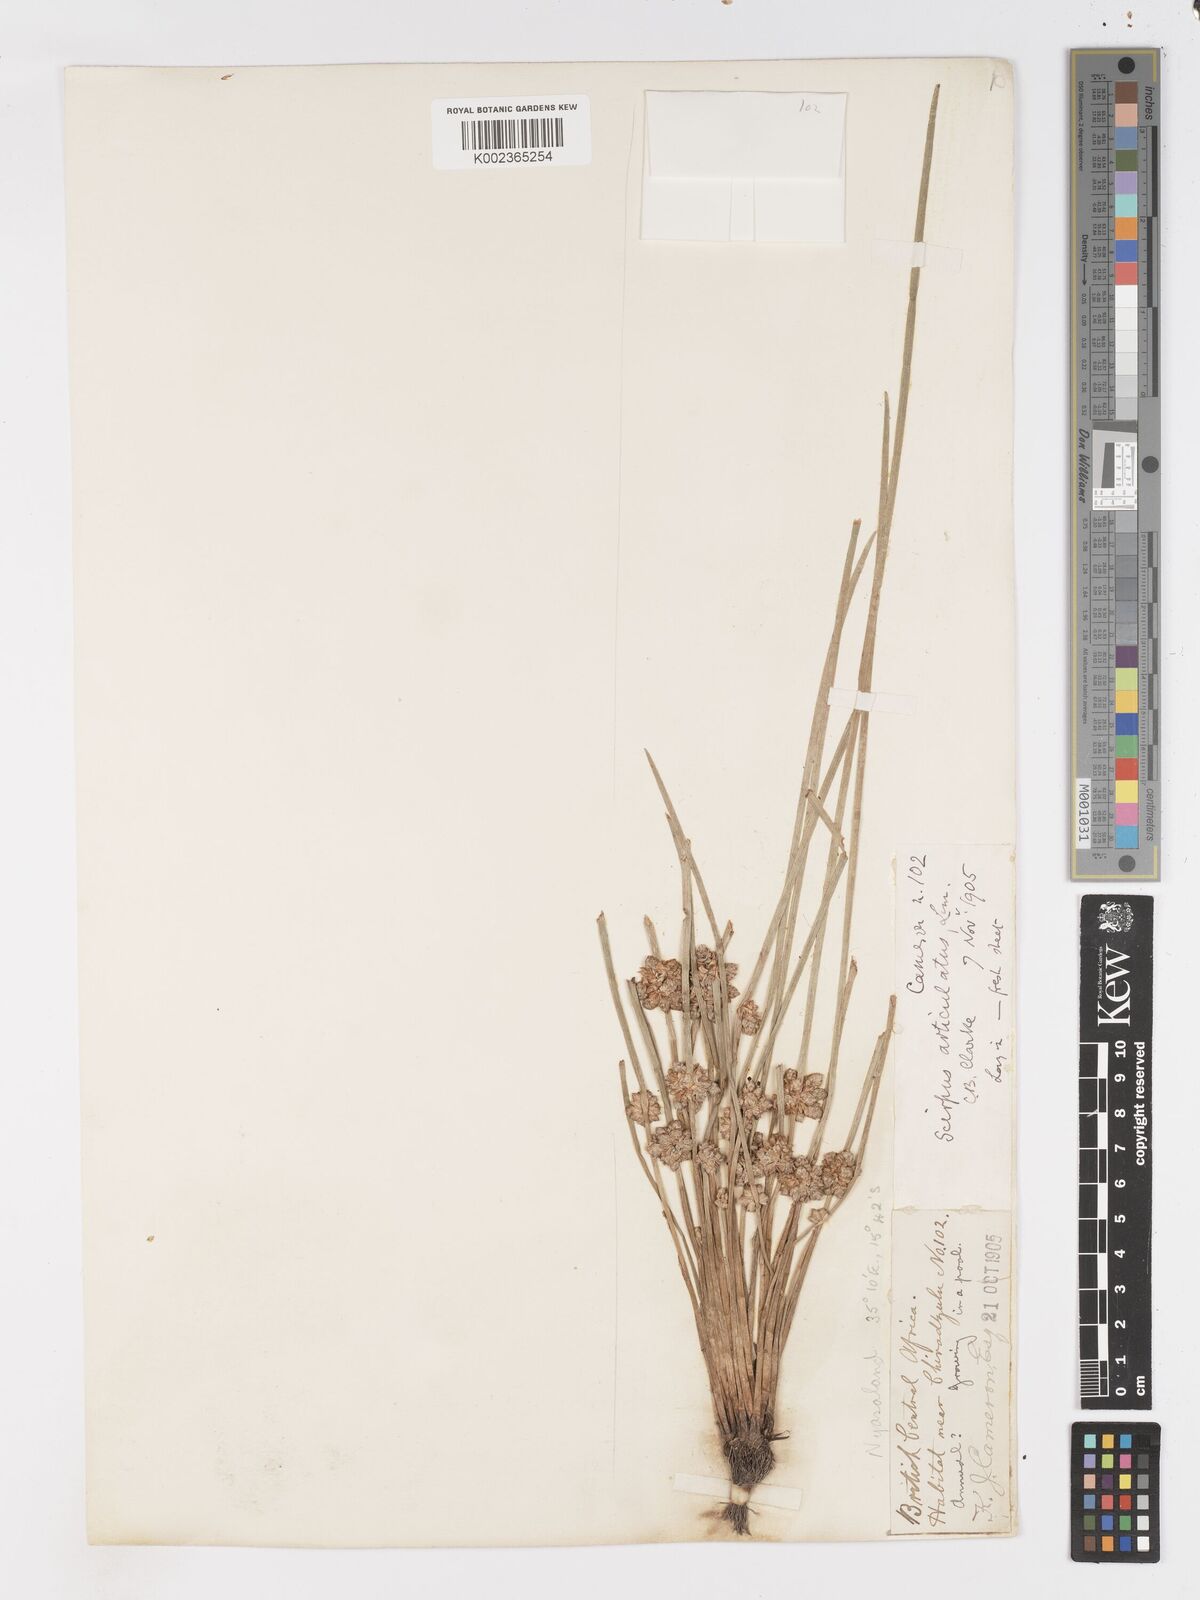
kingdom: Plantae
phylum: Tracheophyta
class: Liliopsida
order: Poales
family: Cyperaceae
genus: Schoenoplectiella
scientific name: Schoenoplectiella senegalensis
